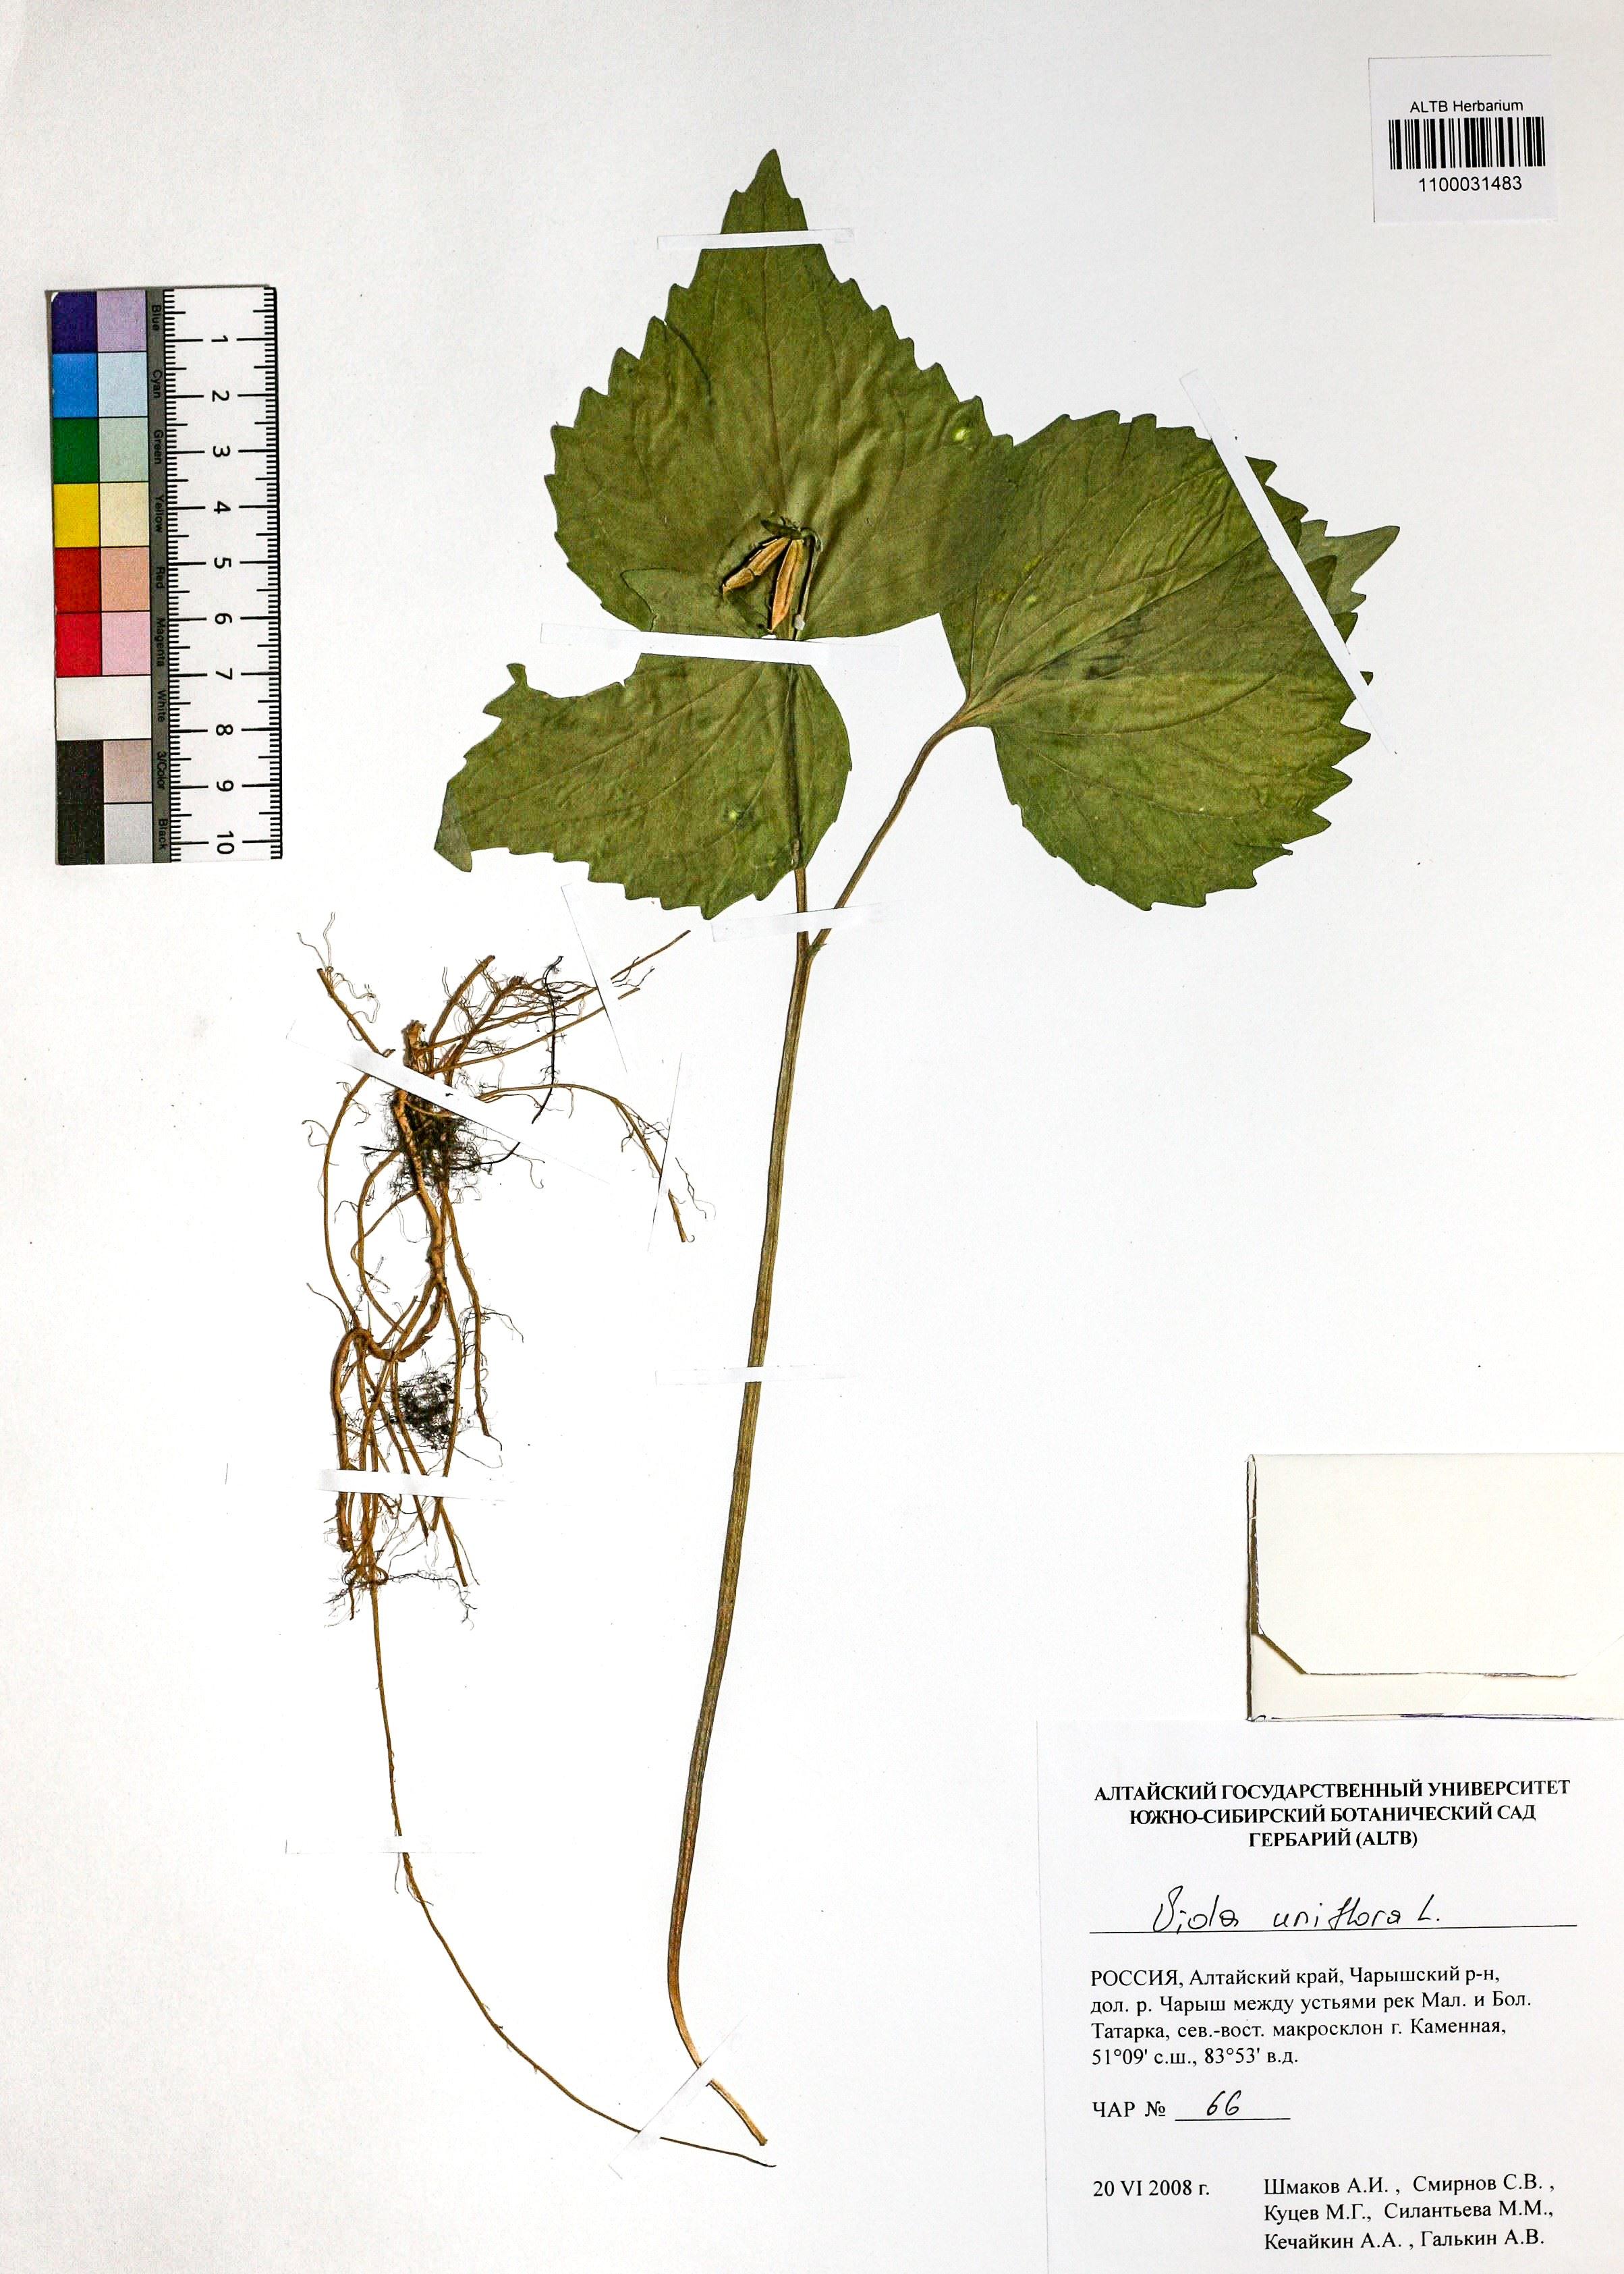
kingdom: Plantae
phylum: Tracheophyta
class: Magnoliopsida
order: Malpighiales
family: Violaceae
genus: Viola
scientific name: Viola uniflora
